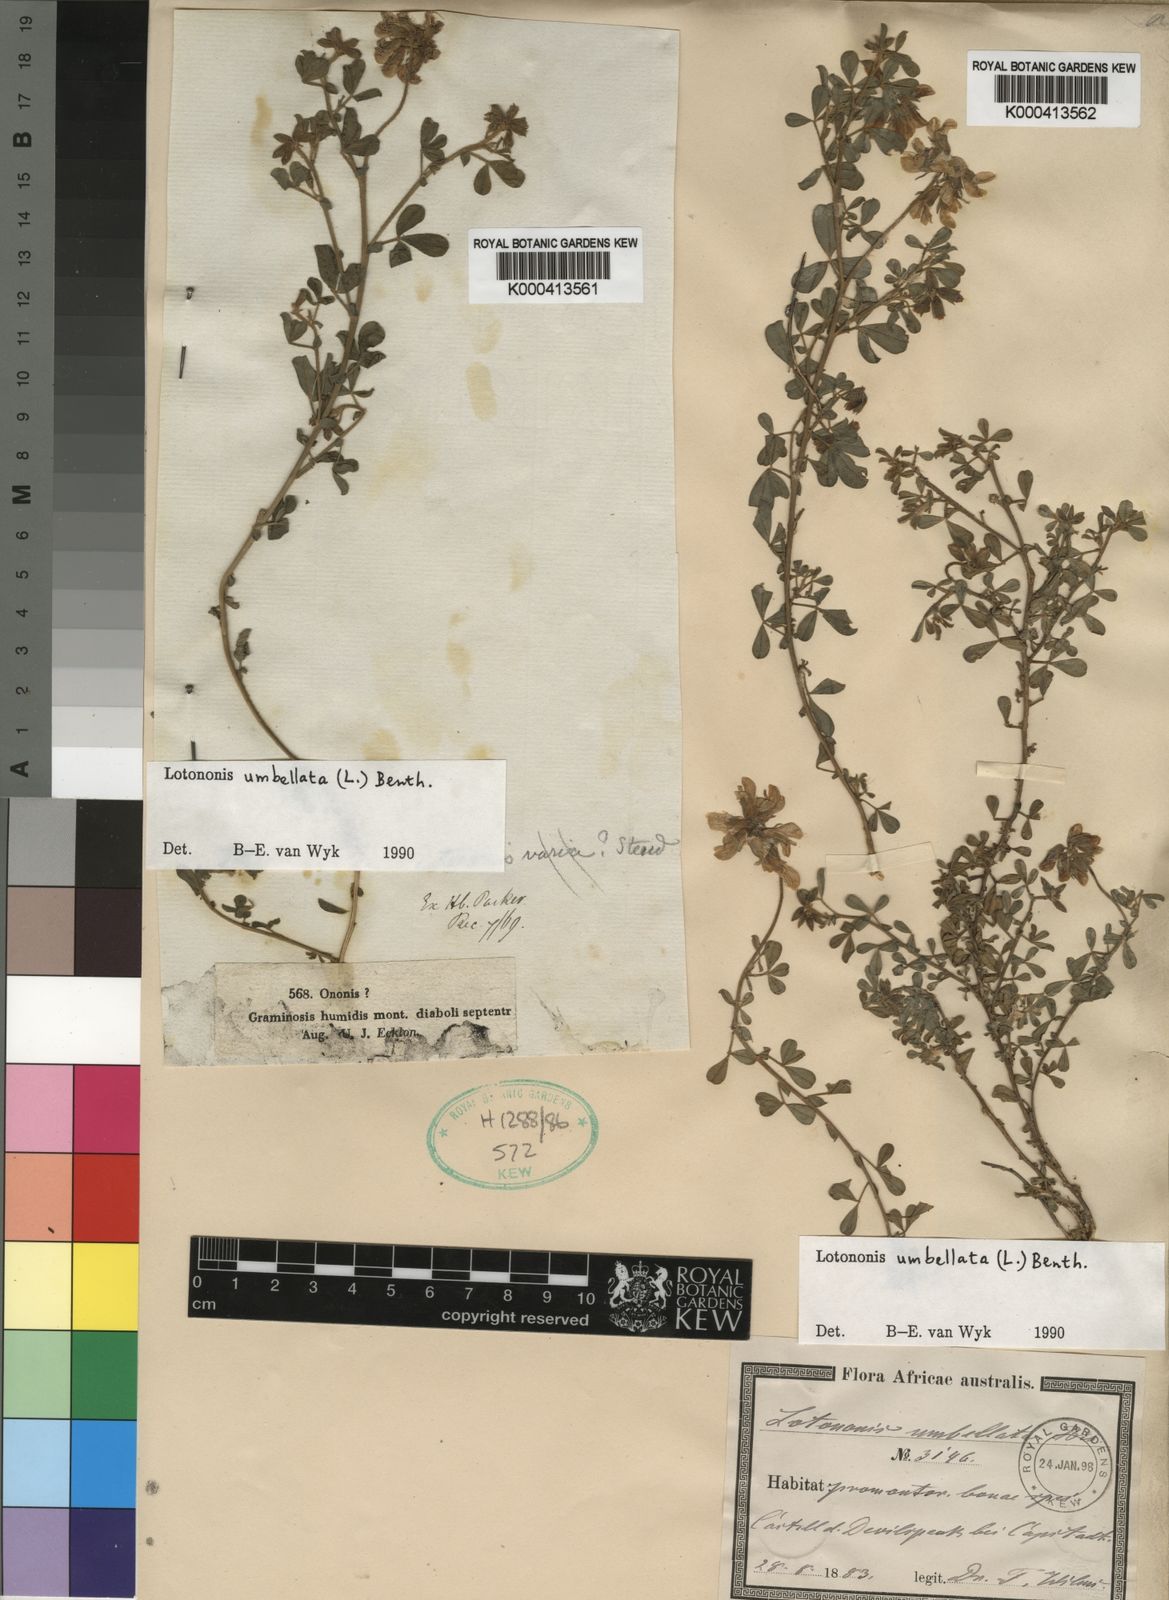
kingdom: Plantae
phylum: Tracheophyta
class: Magnoliopsida
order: Fabales
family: Fabaceae
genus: Lotononis
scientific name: Lotononis umbellata
